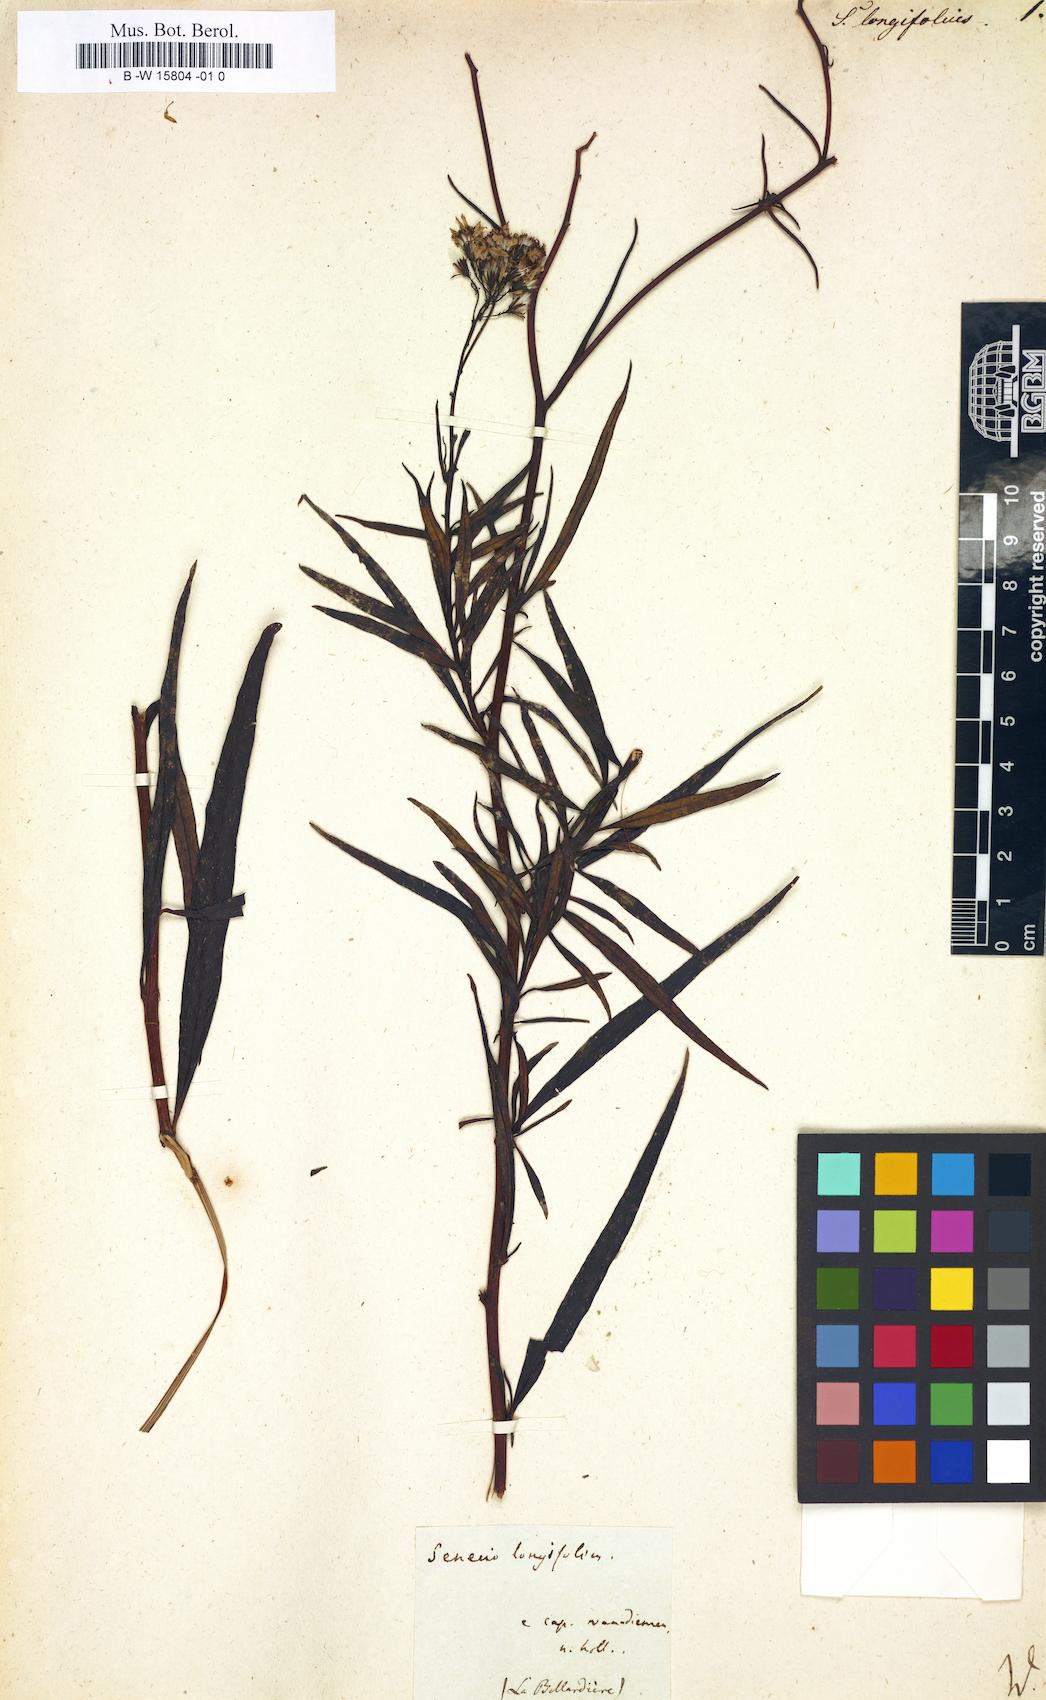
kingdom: Plantae
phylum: Tracheophyta
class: Magnoliopsida
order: Asterales
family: Asteraceae
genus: Senecio
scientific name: Senecio linifolius
